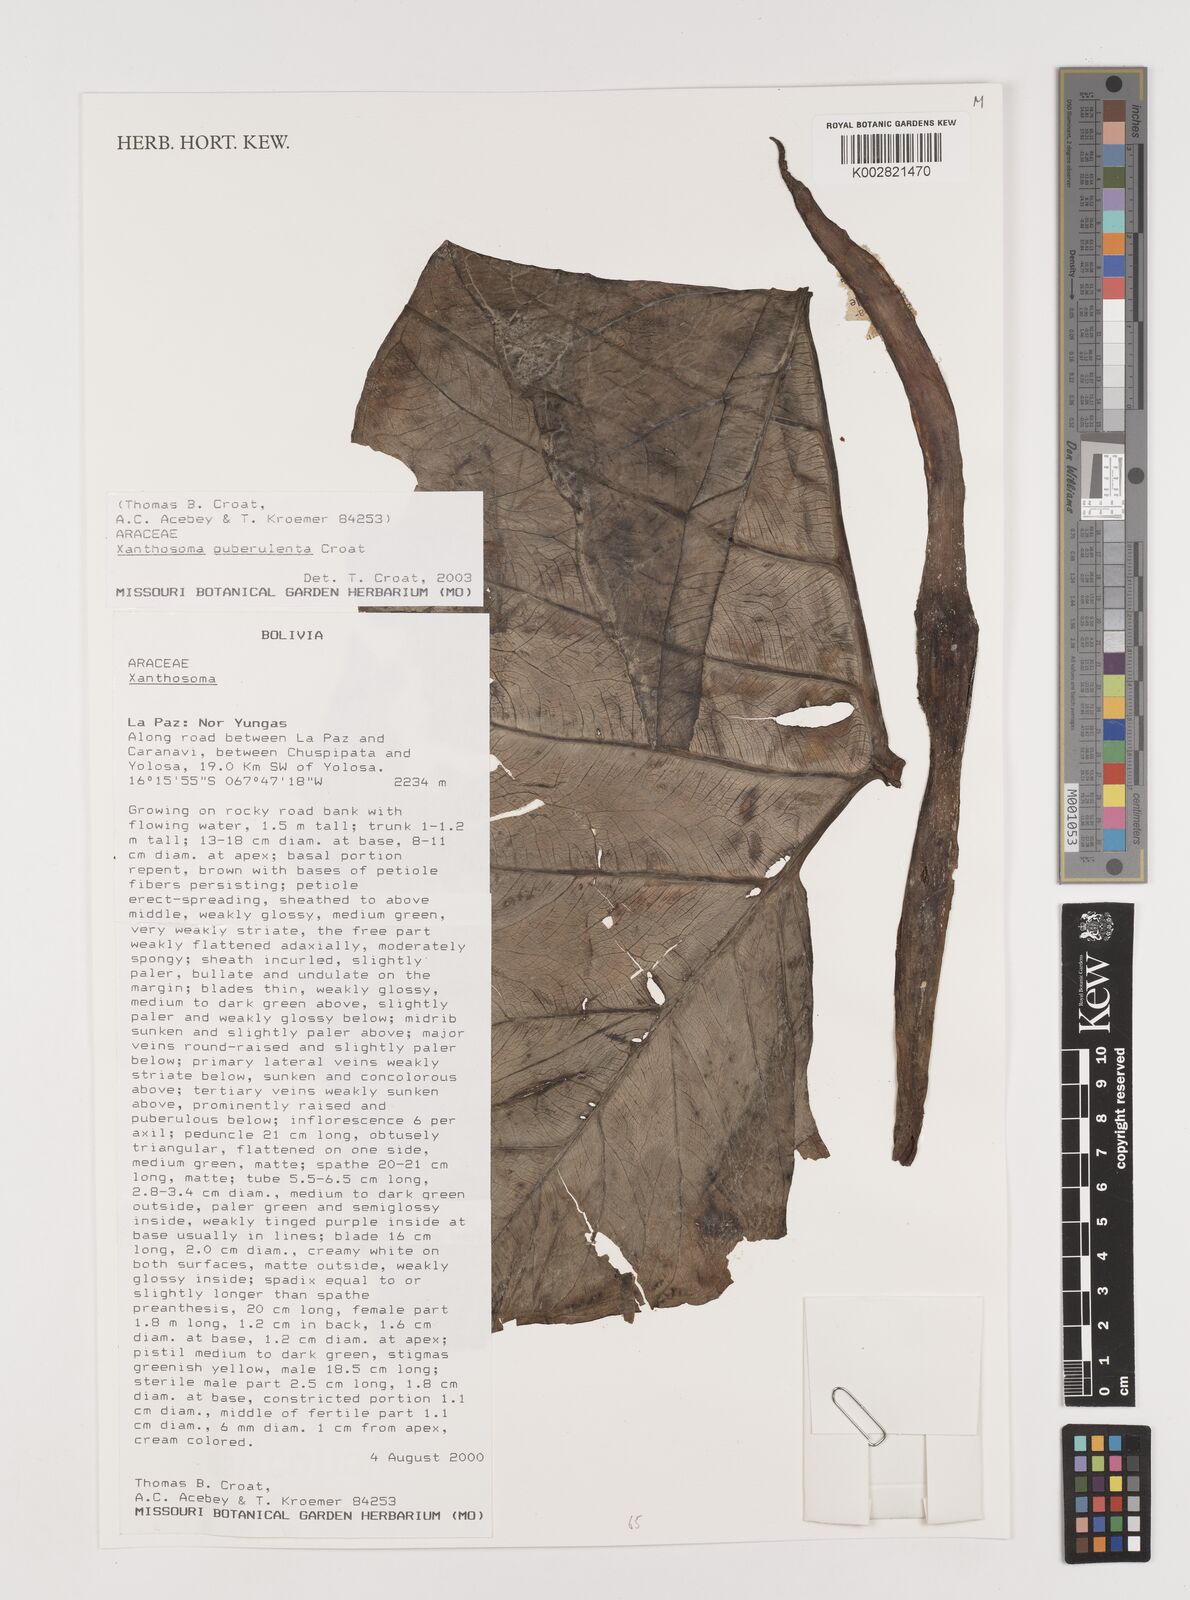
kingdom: Plantae
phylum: Tracheophyta
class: Liliopsida
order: Alismatales
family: Araceae
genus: Xanthosoma
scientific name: Xanthosoma puberulum
